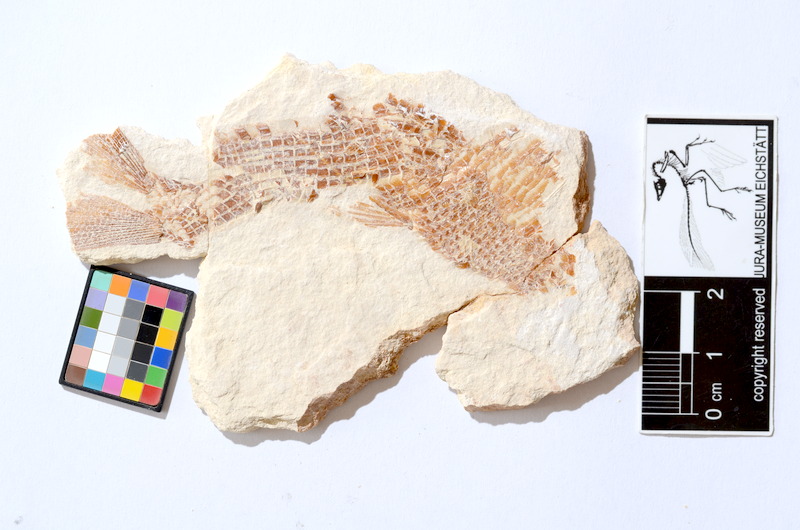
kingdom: Animalia
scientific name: Animalia
